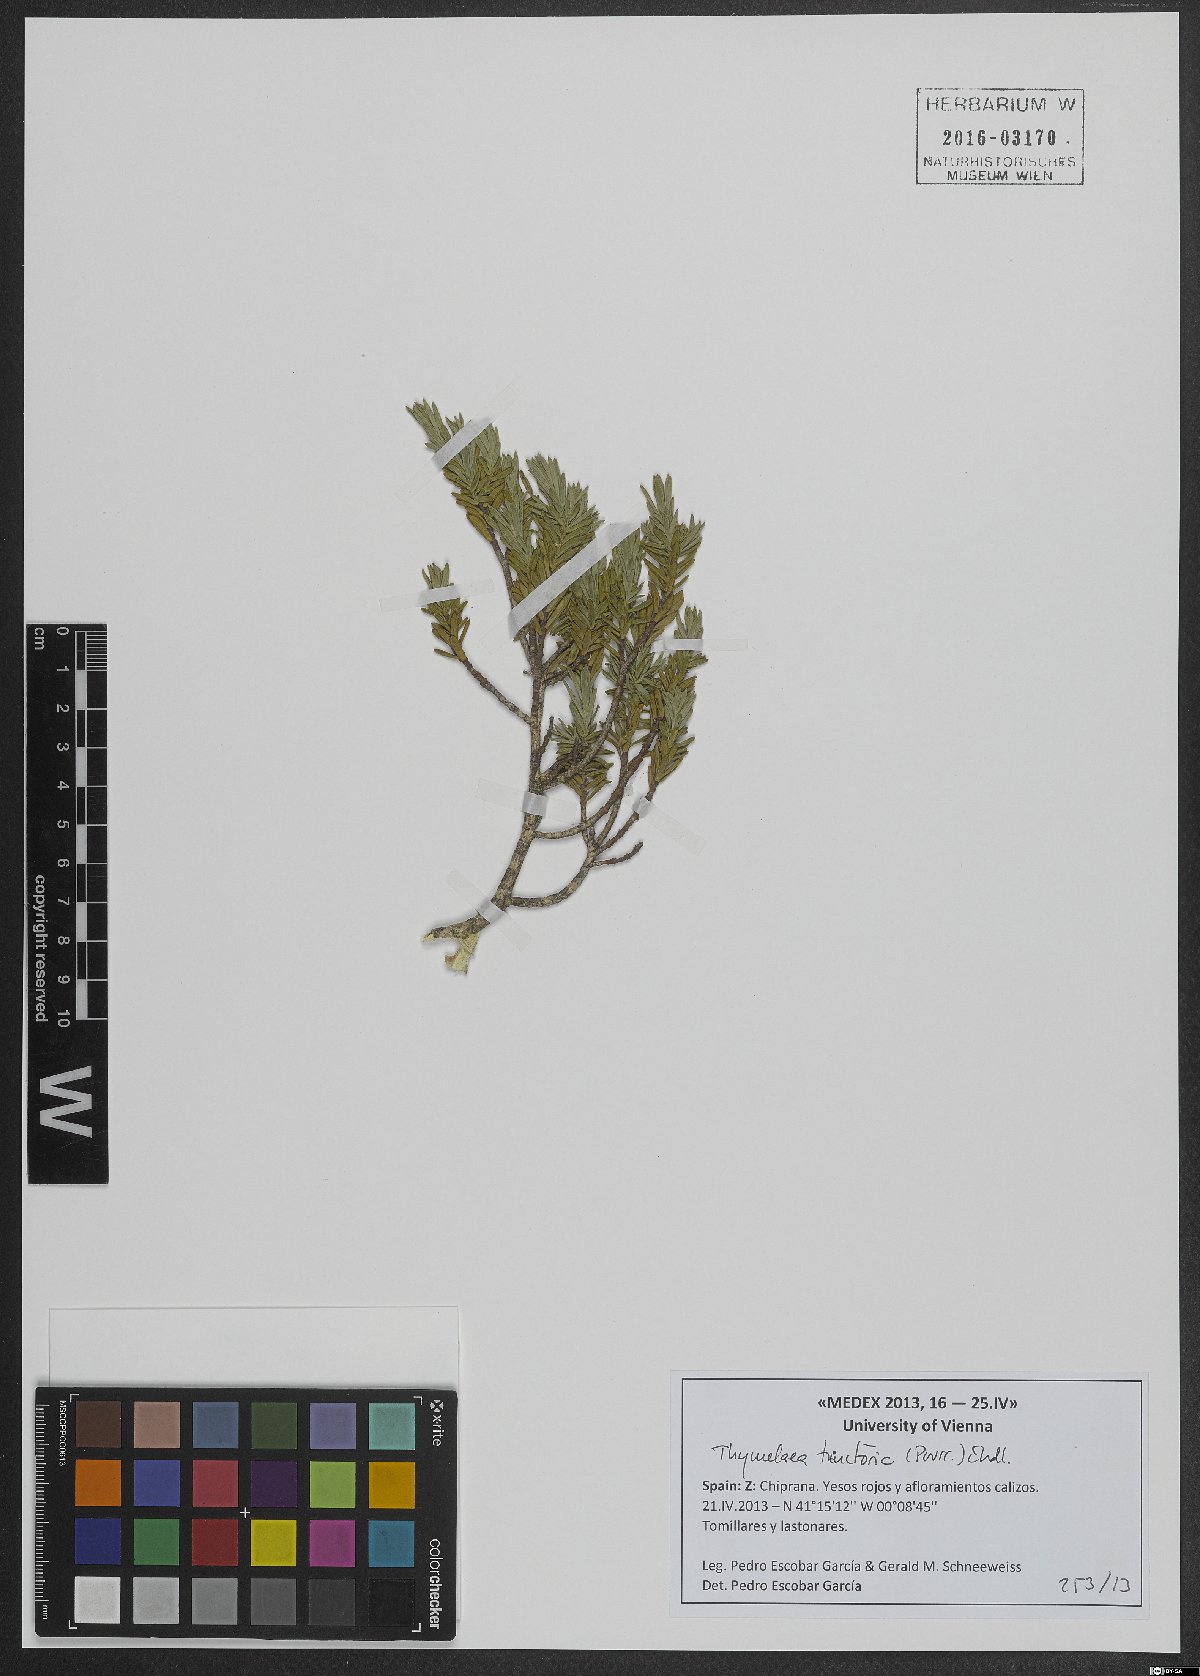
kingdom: Plantae
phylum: Tracheophyta
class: Magnoliopsida
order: Malvales
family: Thymelaeaceae
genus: Thymelaea
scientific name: Thymelaea tartonraira
